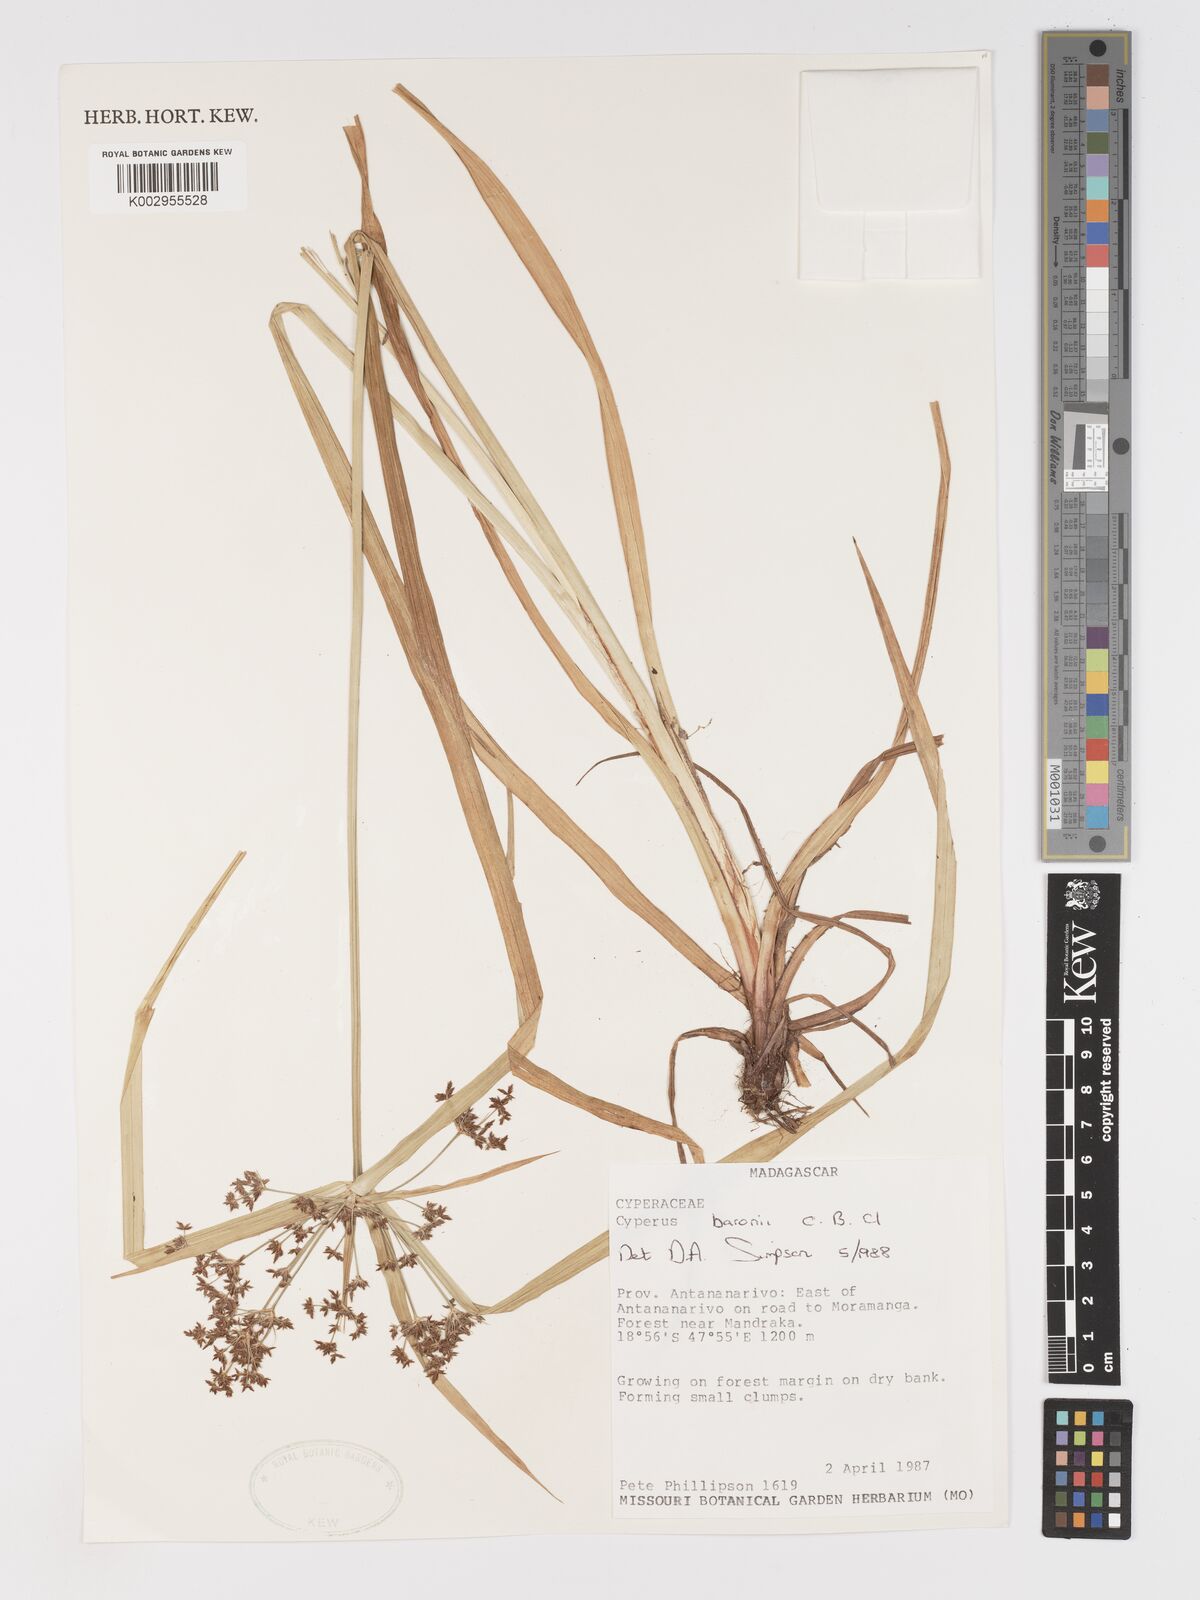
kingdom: Plantae
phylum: Tracheophyta
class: Liliopsida
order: Poales
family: Cyperaceae
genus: Cyperus
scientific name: Cyperus baronii
